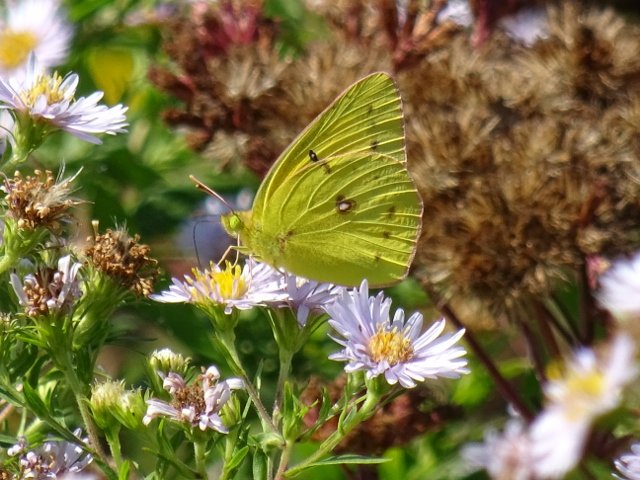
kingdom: Animalia
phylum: Arthropoda
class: Insecta
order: Lepidoptera
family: Pieridae
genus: Colias
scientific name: Colias philodice
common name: Clouded Sulphur
